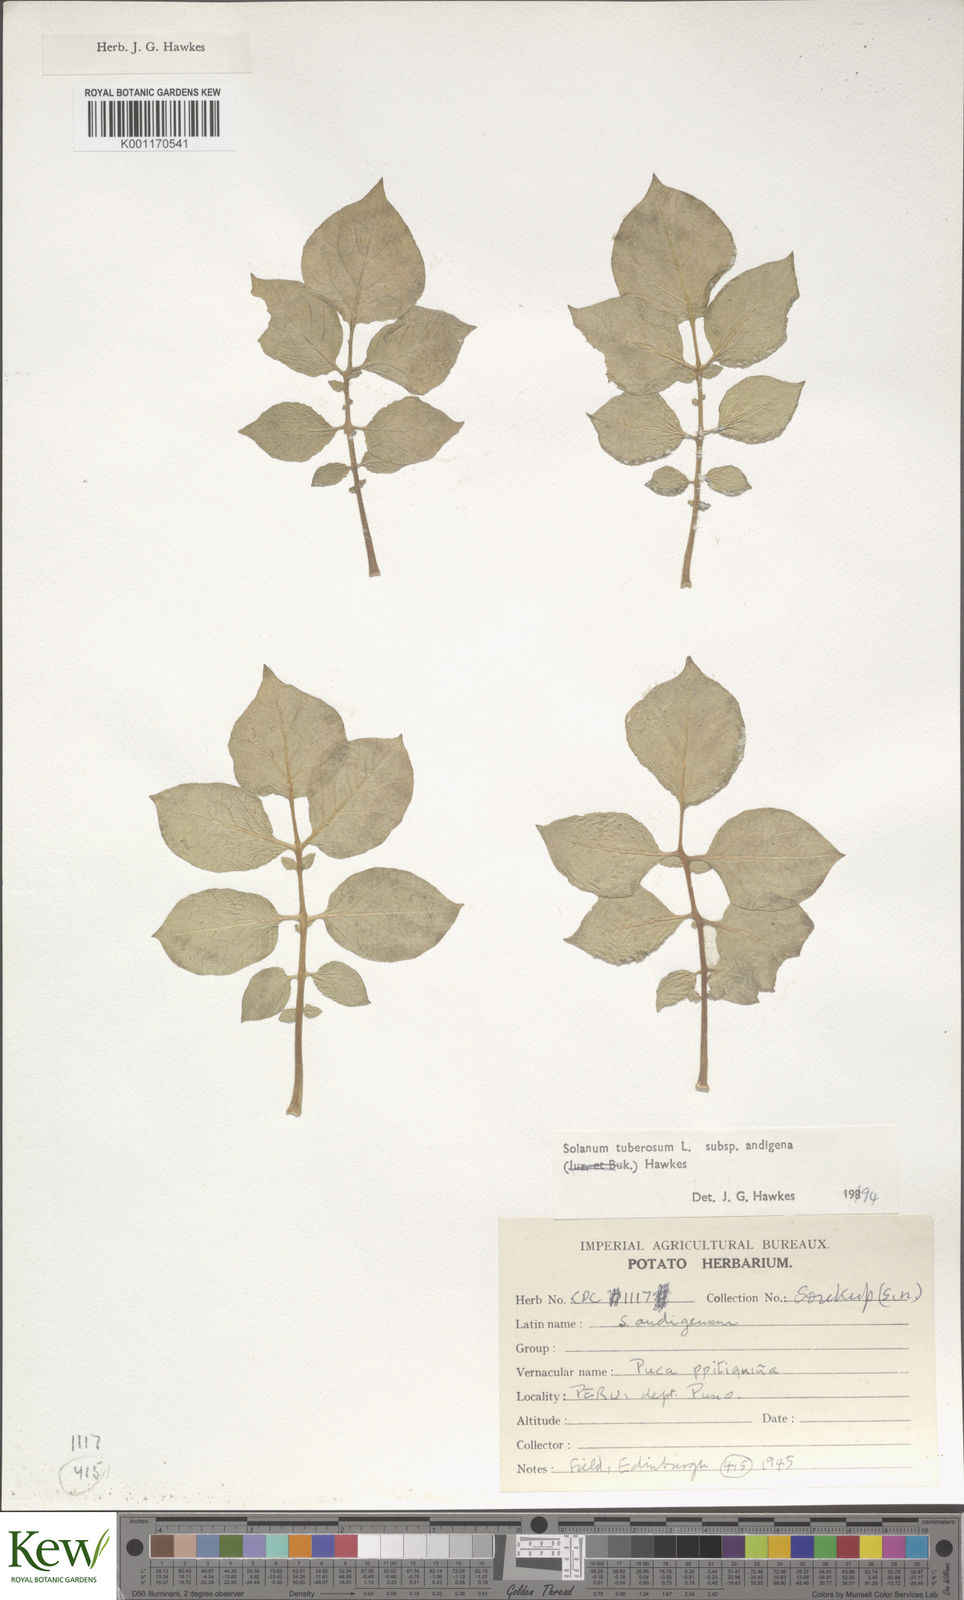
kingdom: Plantae
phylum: Tracheophyta
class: Magnoliopsida
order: Solanales
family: Solanaceae
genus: Solanum
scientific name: Solanum tuberosum
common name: Potato
